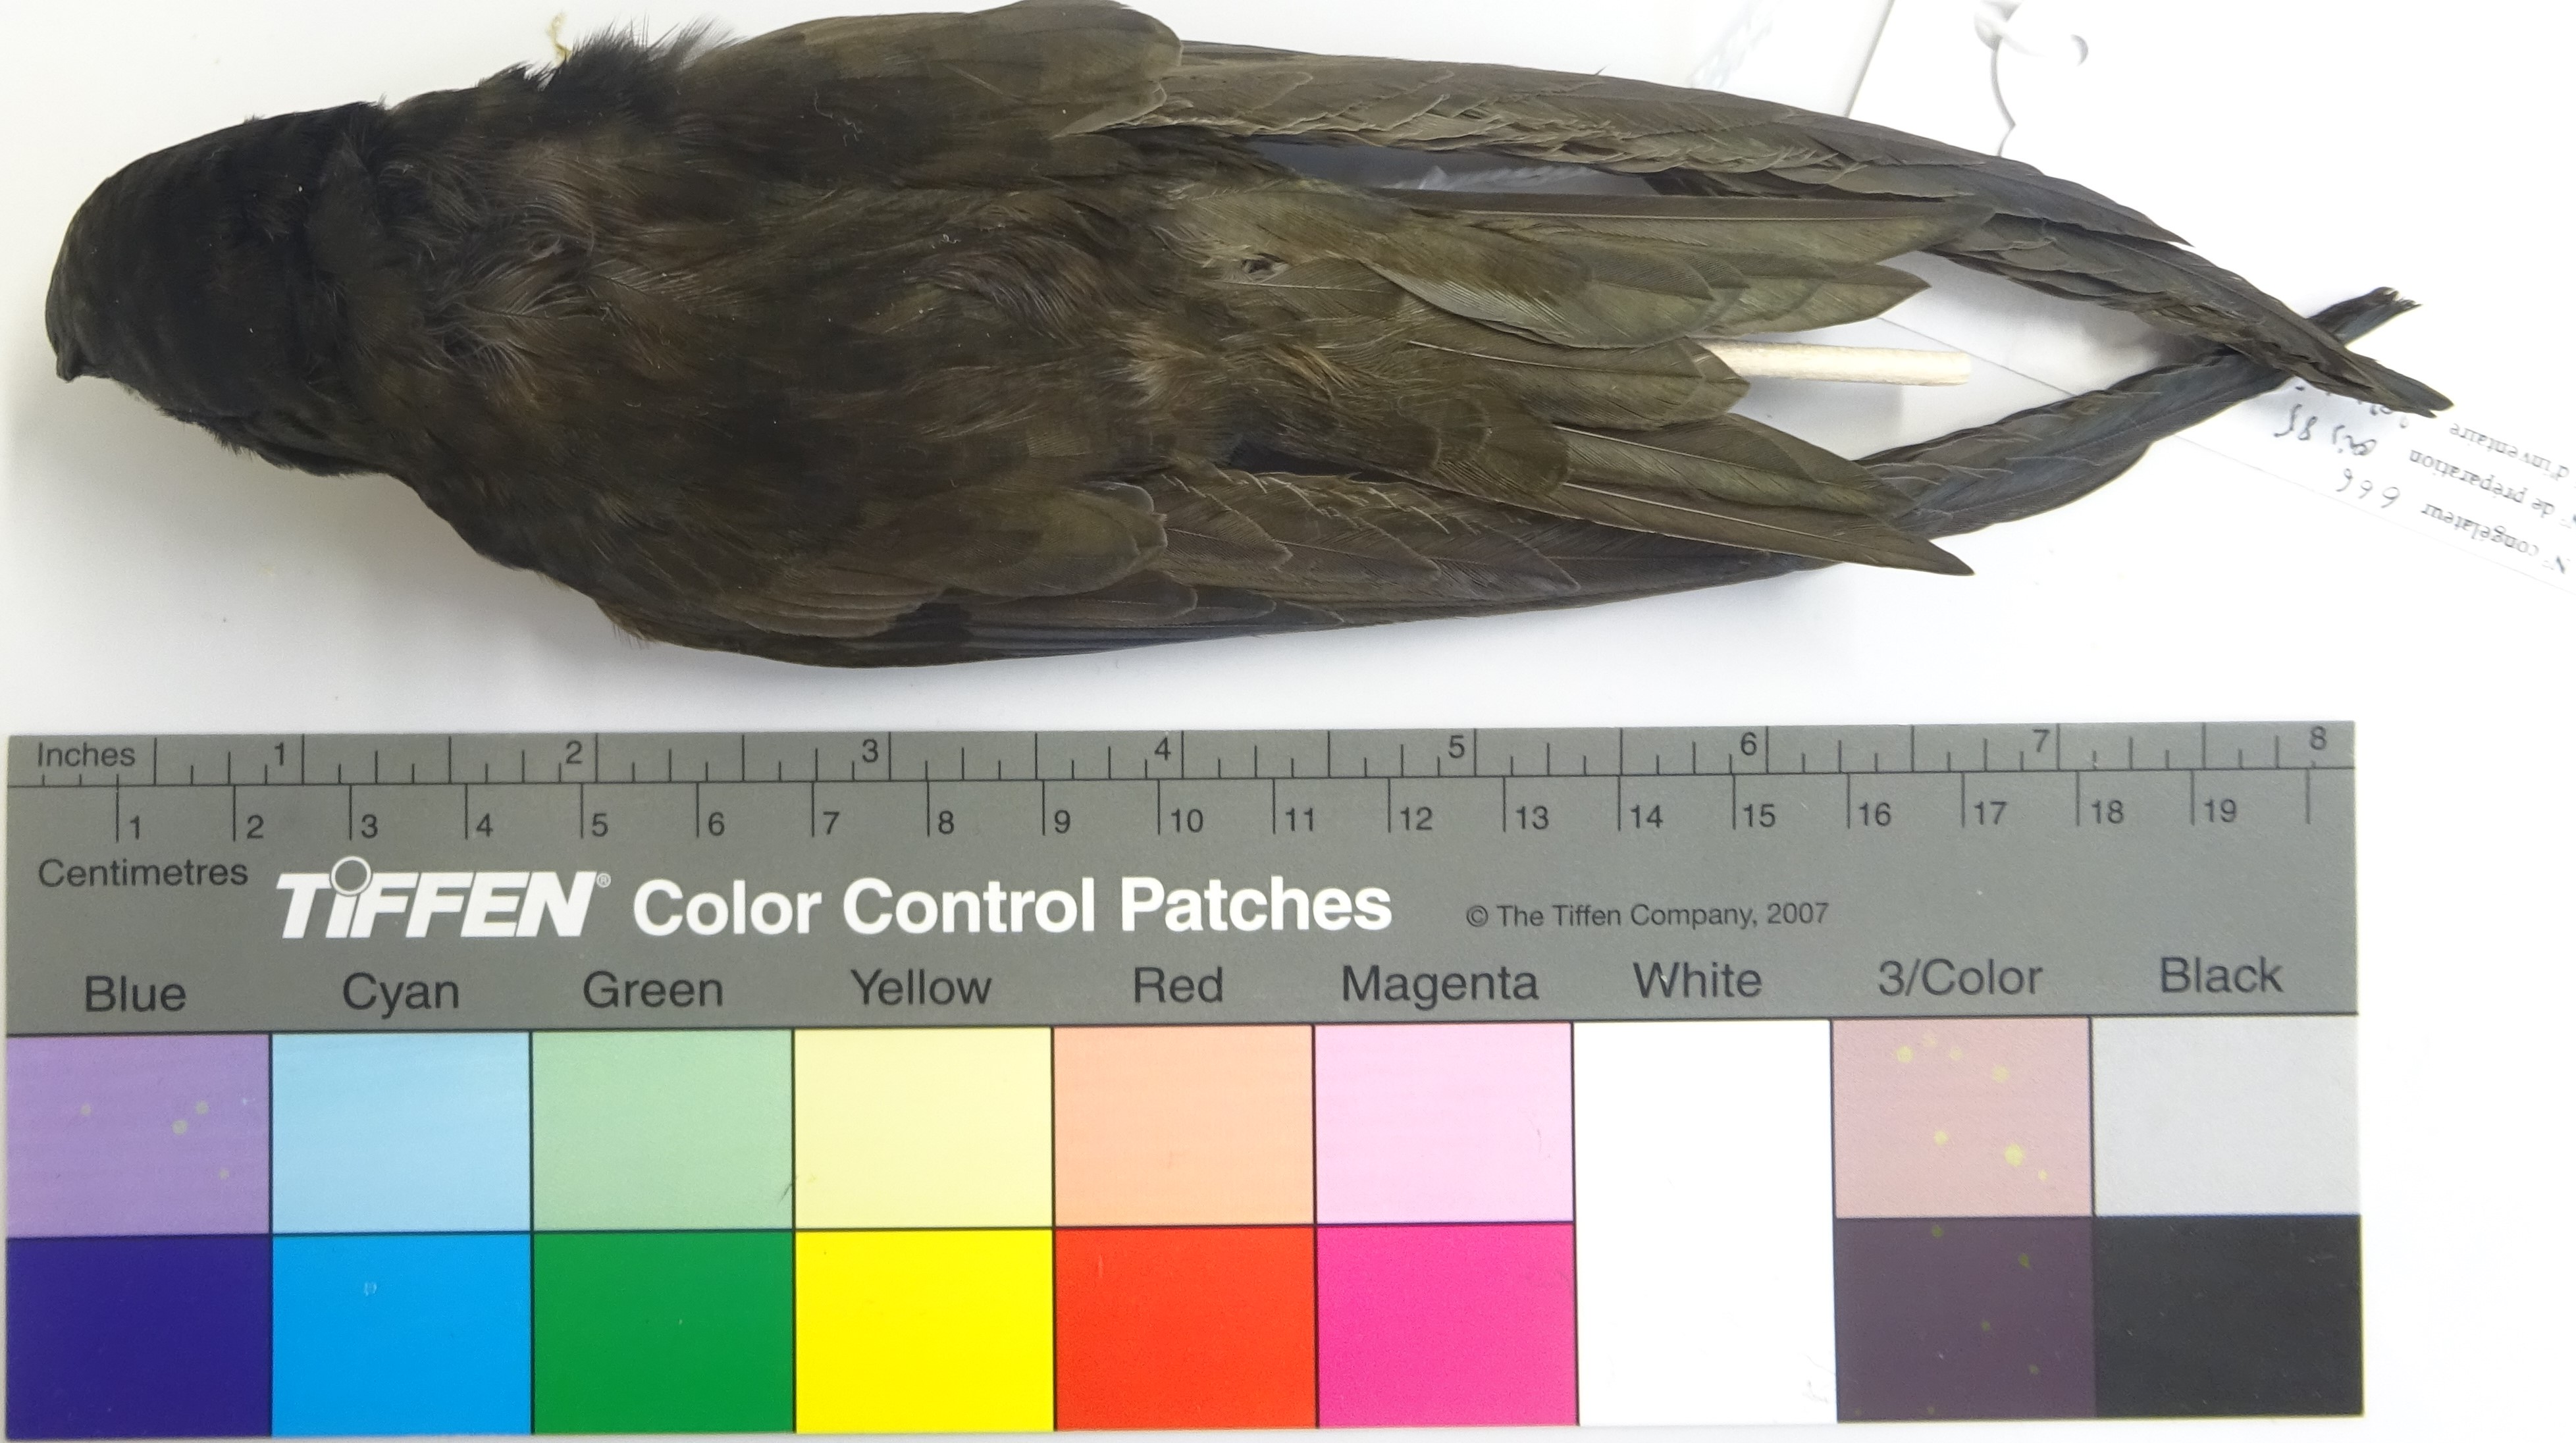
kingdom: Animalia
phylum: Chordata
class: Aves
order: Apodiformes
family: Apodidae
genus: Apus
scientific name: Apus apus
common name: Common swift
